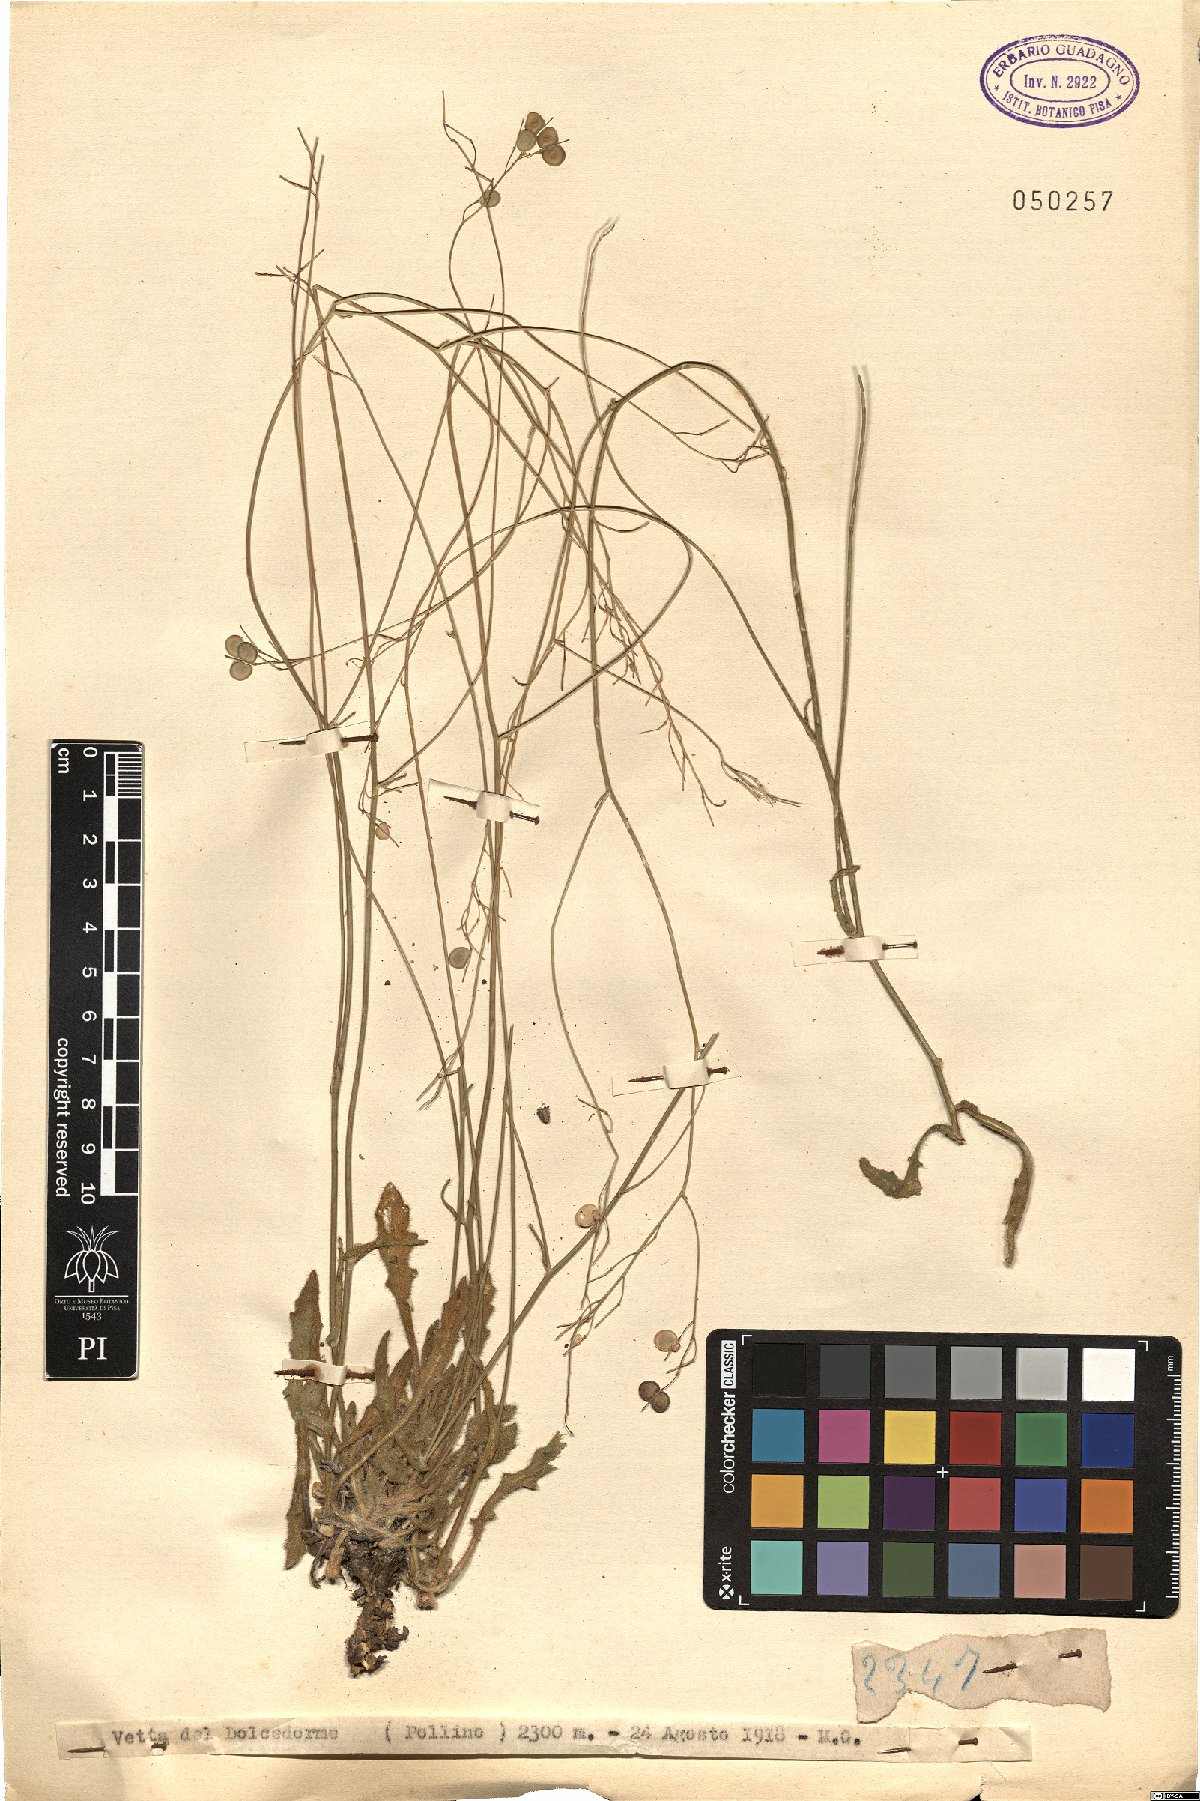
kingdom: Plantae
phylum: Tracheophyta
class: Magnoliopsida
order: Brassicales
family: Brassicaceae
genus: Biscutella
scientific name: Biscutella
